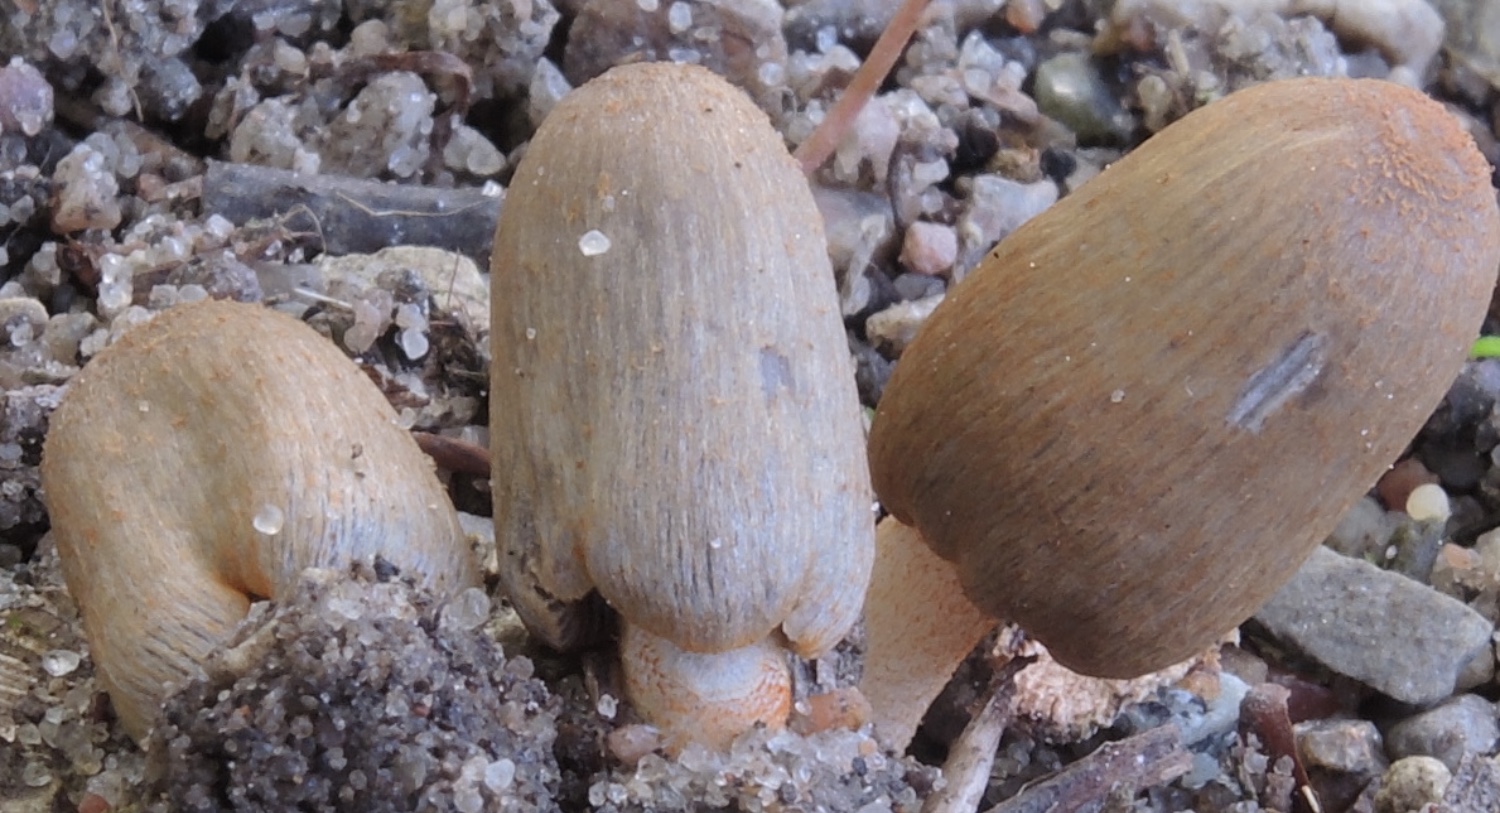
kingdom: Fungi
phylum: Basidiomycota
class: Agaricomycetes
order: Agaricales
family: Psathyrellaceae
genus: Coprinopsis
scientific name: Coprinopsis erythrocephala
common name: rødhåret blækhat
